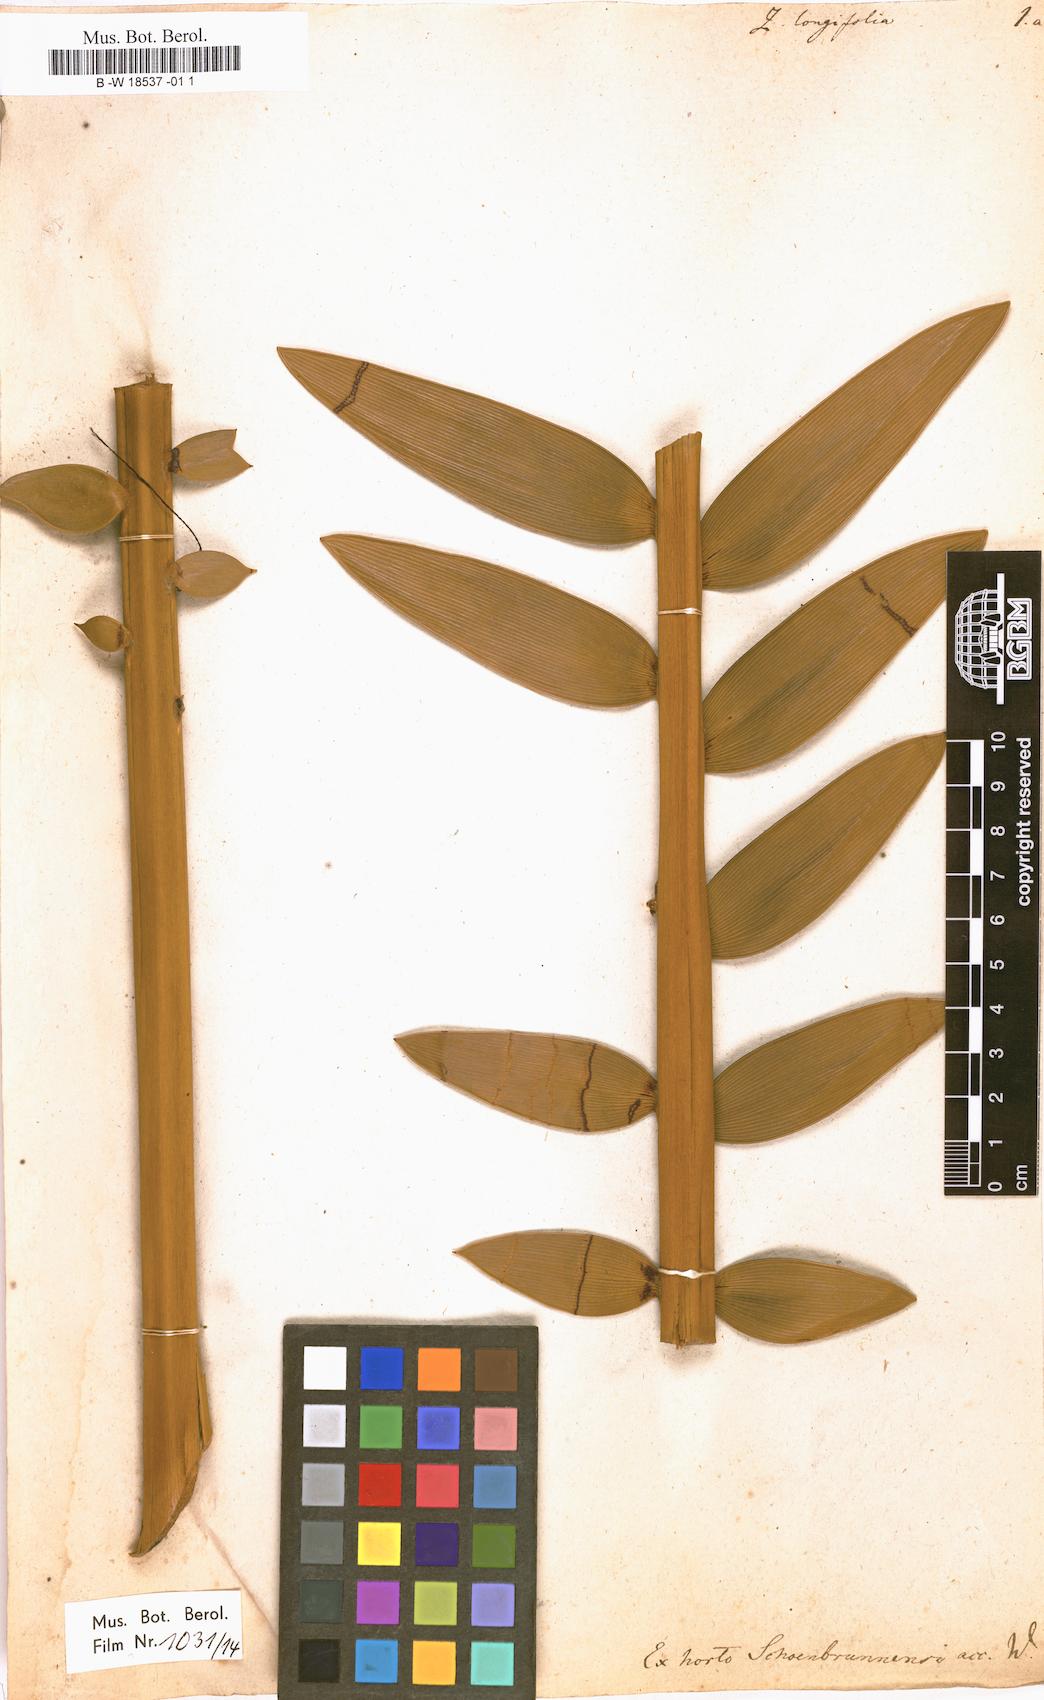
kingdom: Plantae
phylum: Tracheophyta
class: Cycadopsida
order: Cycadales
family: Zamiaceae
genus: Encephalartos
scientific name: Encephalartos longifolius
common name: Suurberg cycad
